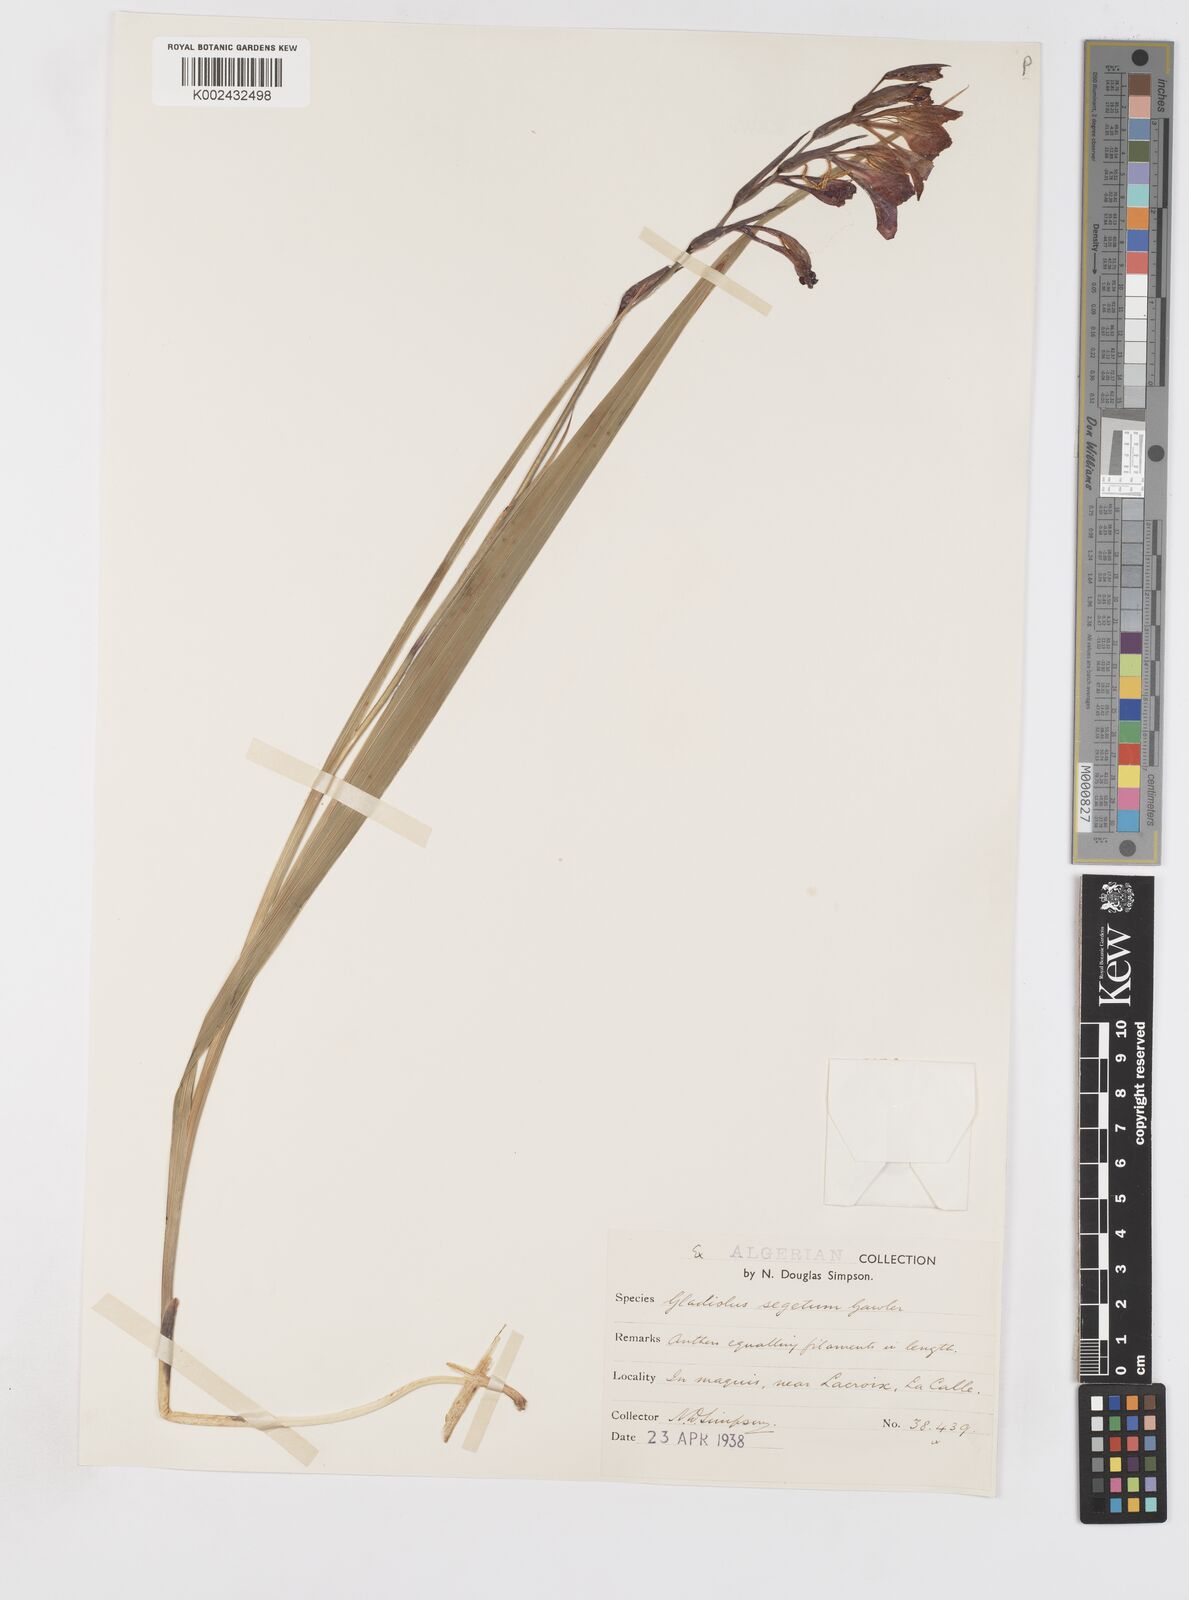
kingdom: Plantae
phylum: Tracheophyta
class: Liliopsida
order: Asparagales
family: Iridaceae
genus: Gladiolus
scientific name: Gladiolus italicus
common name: Field gladiolus
